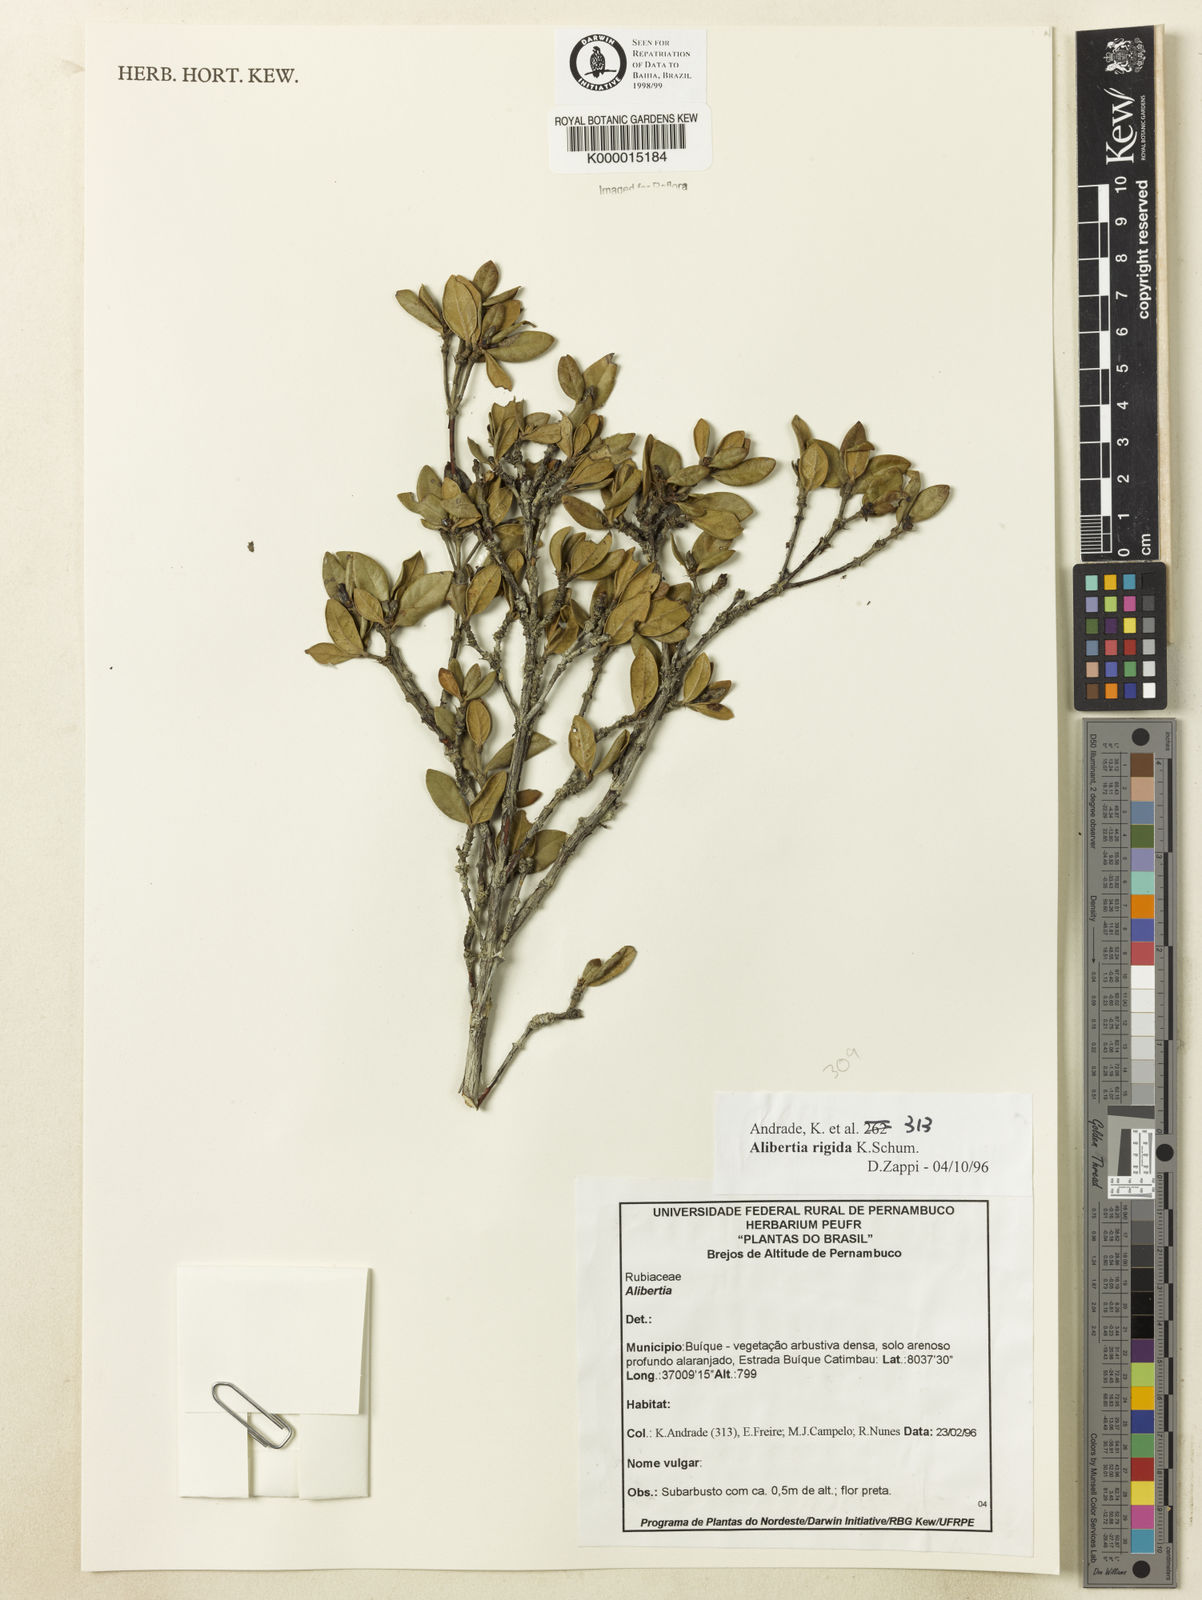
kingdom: Plantae
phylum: Tracheophyta
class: Magnoliopsida
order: Gentianales
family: Rubiaceae
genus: Cordiera
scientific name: Cordiera rigida
